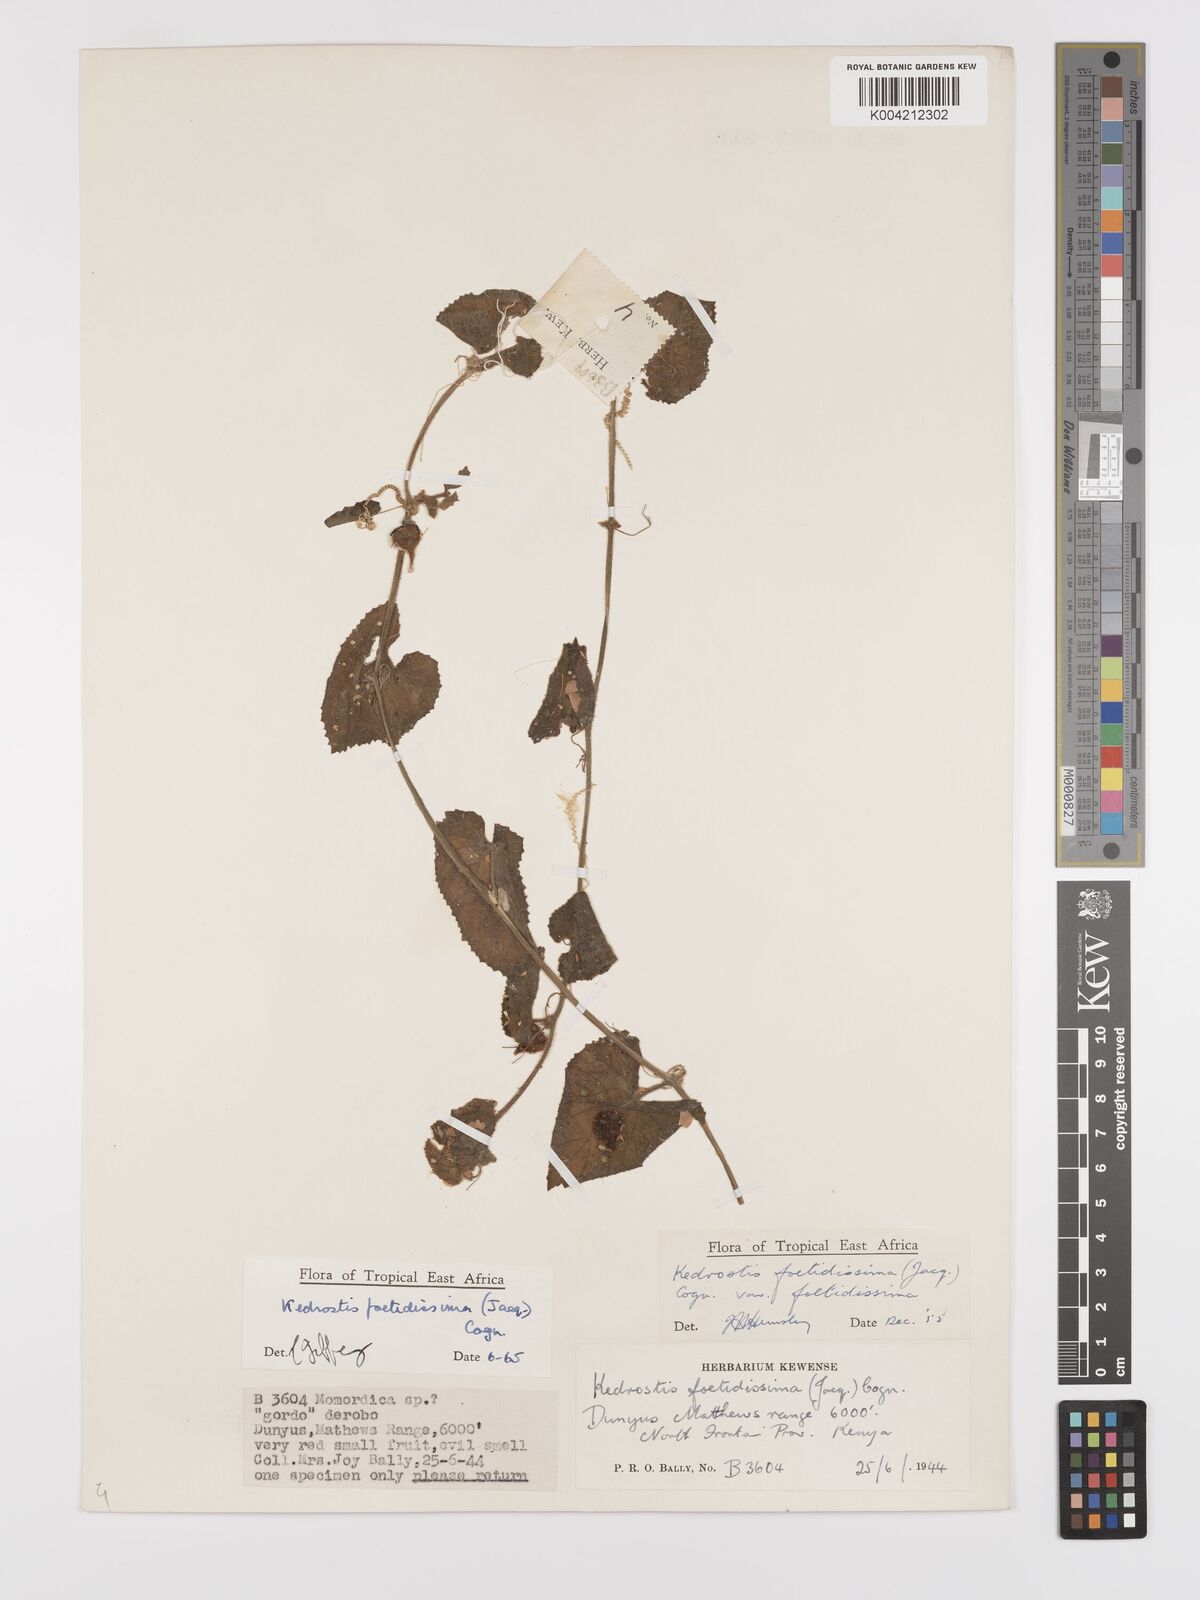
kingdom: Plantae
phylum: Tracheophyta
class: Magnoliopsida
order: Cucurbitales
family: Cucurbitaceae
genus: Kedrostis
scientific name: Kedrostis foetidissima
